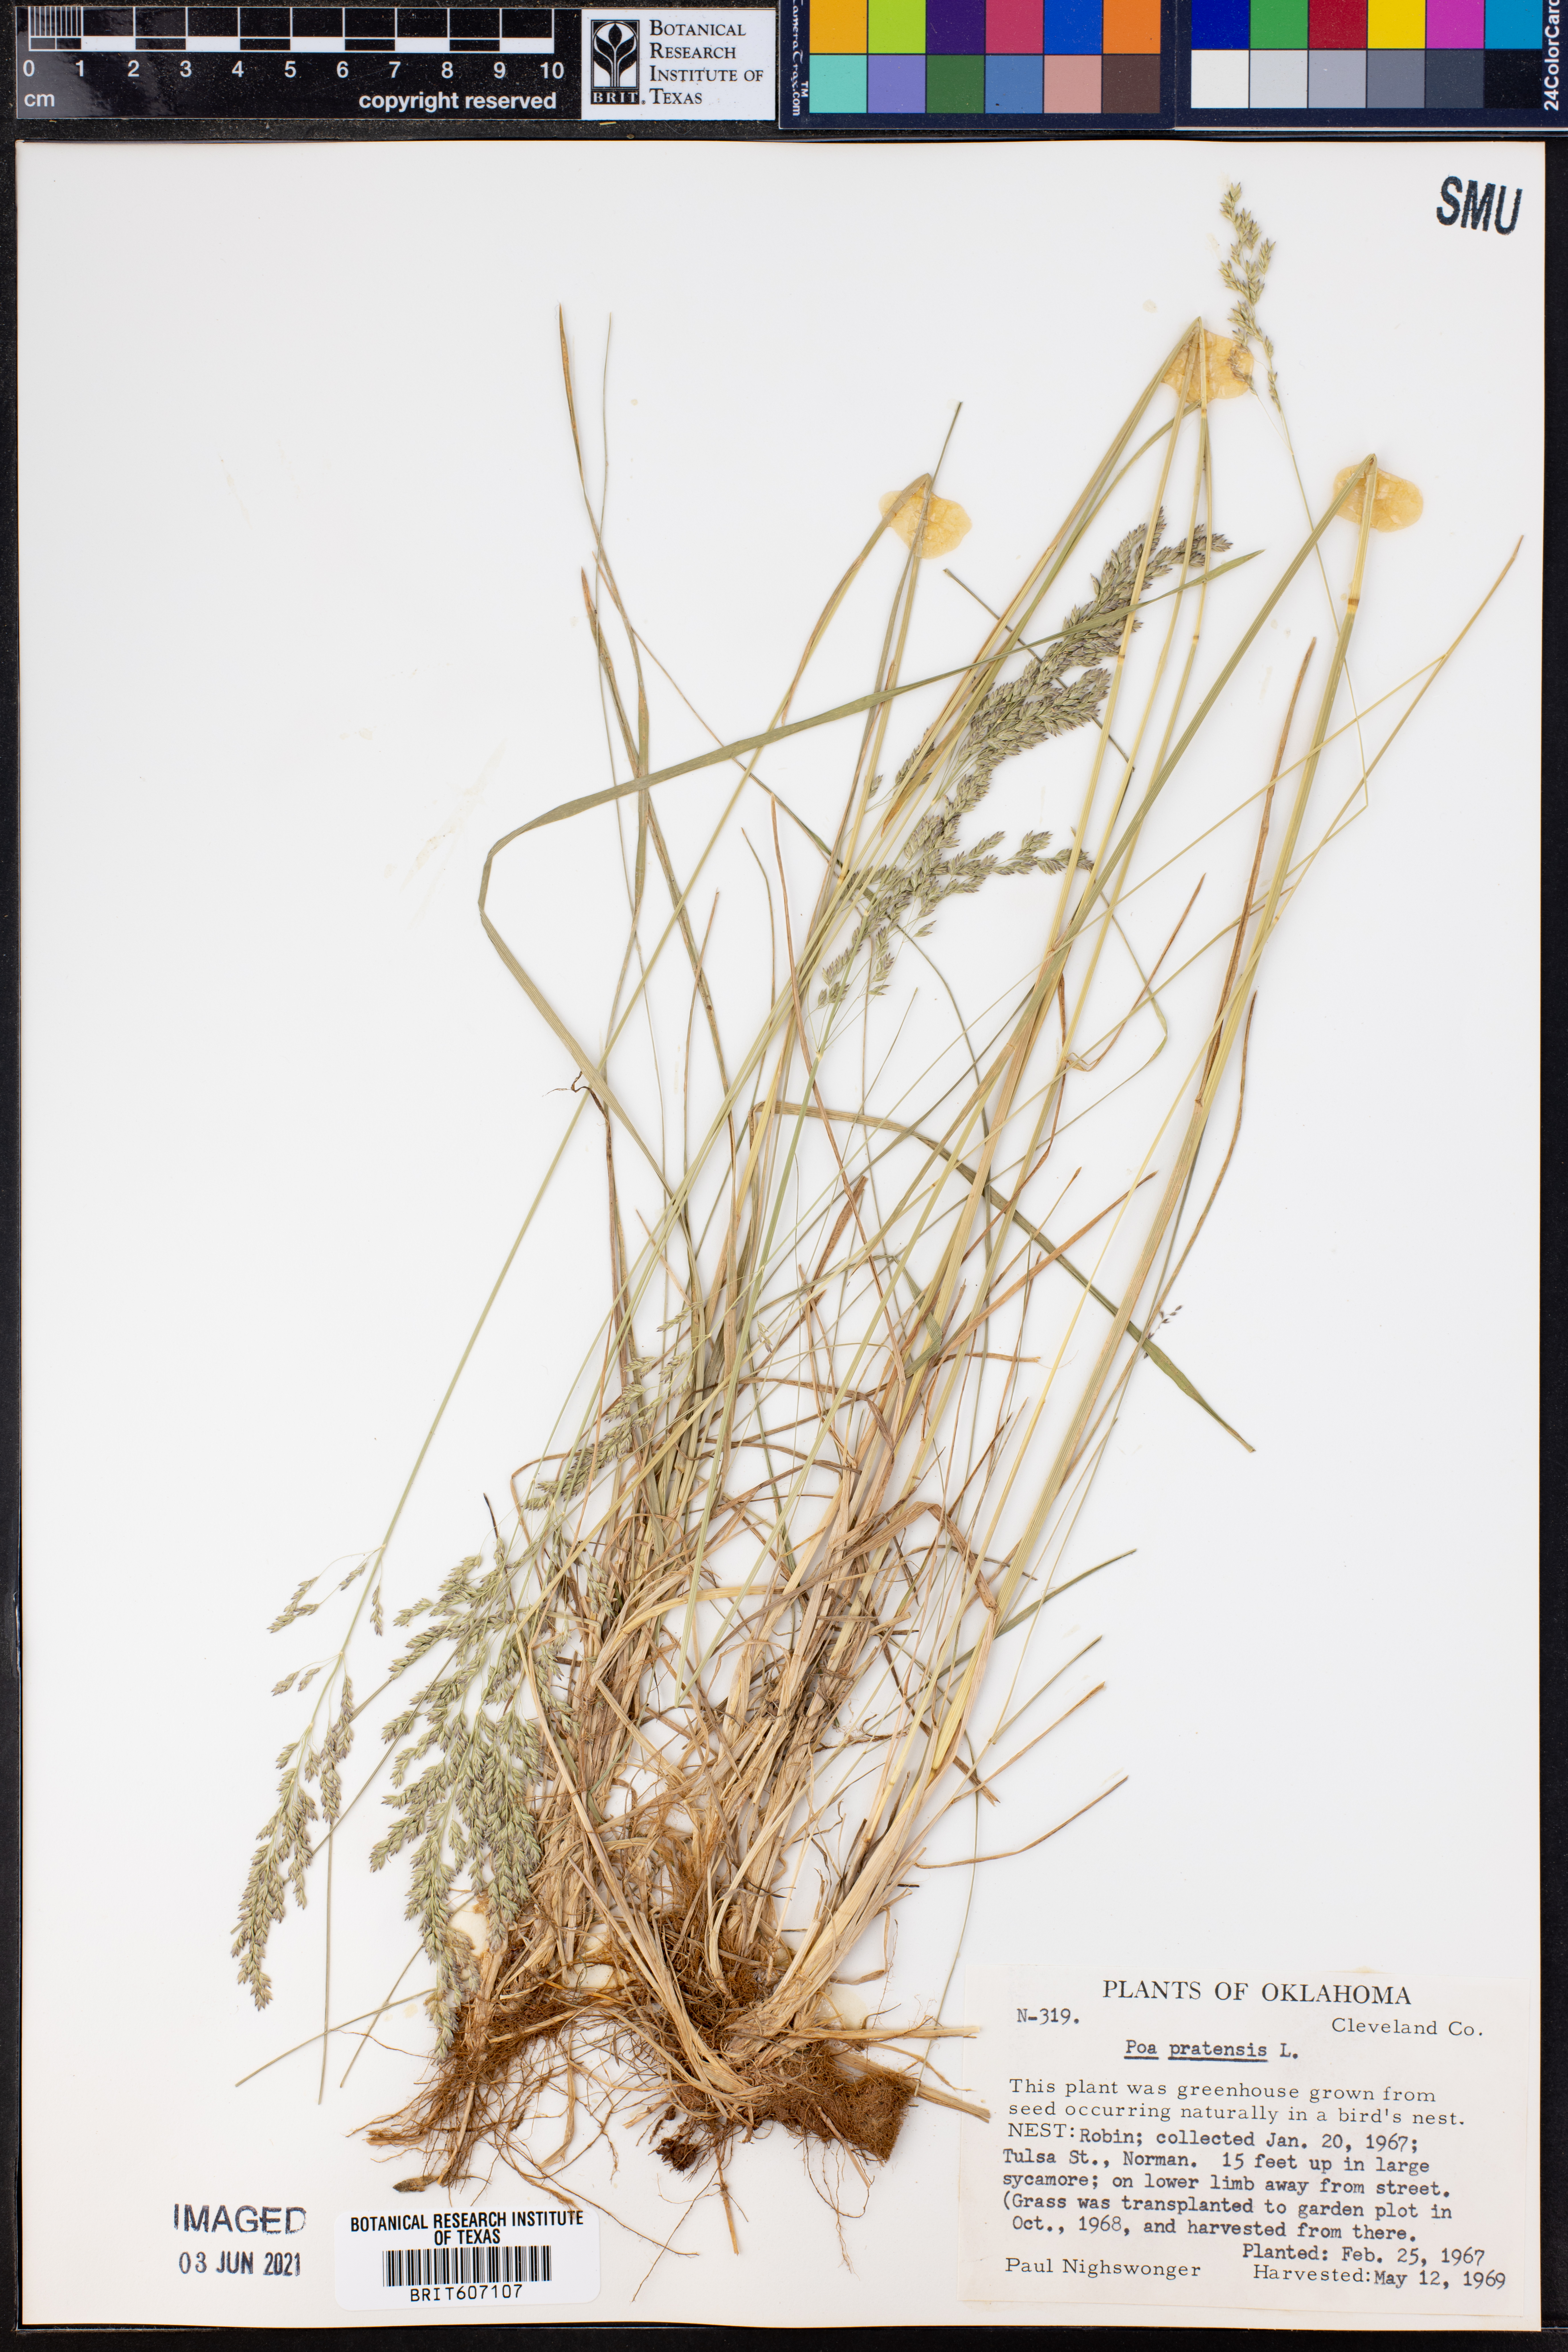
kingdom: Plantae
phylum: Tracheophyta
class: Liliopsida
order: Poales
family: Poaceae
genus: Poa
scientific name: Poa pratensis
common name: Kentucky bluegrass
